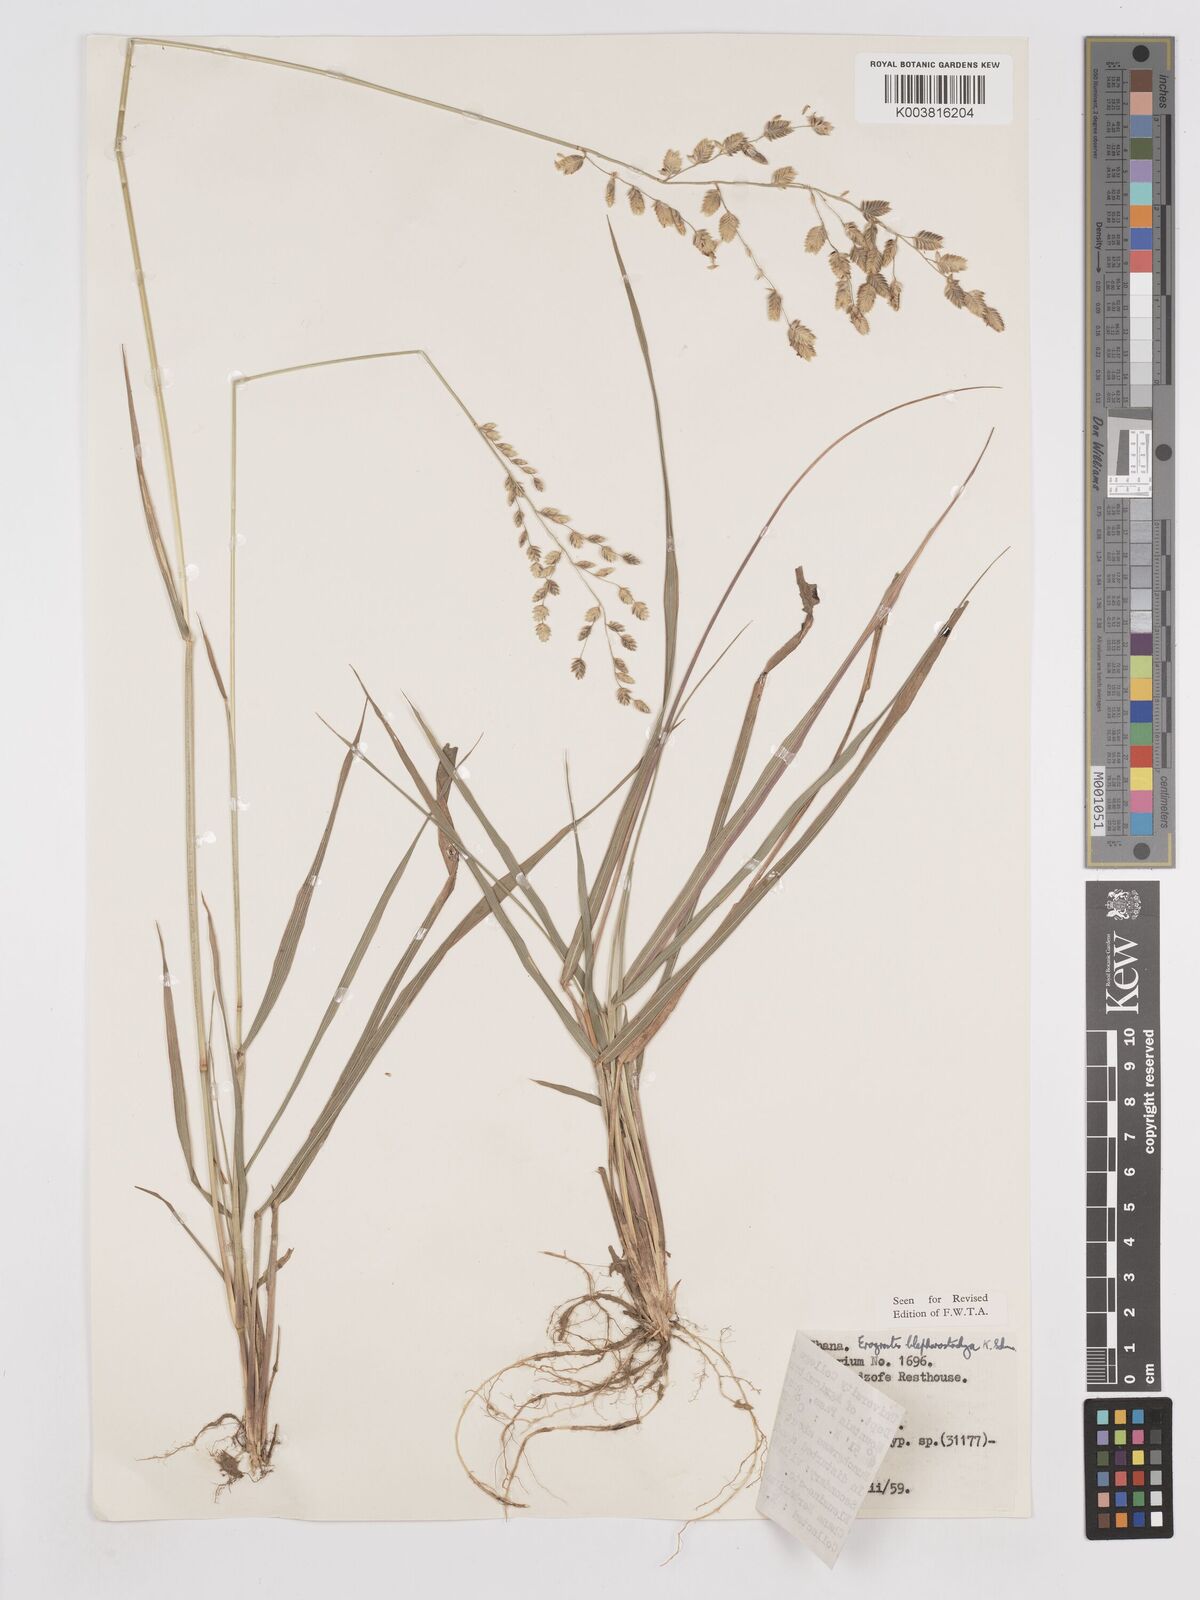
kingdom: Plantae
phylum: Tracheophyta
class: Liliopsida
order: Poales
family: Poaceae
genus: Eragrostis
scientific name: Eragrostis blepharostachya
